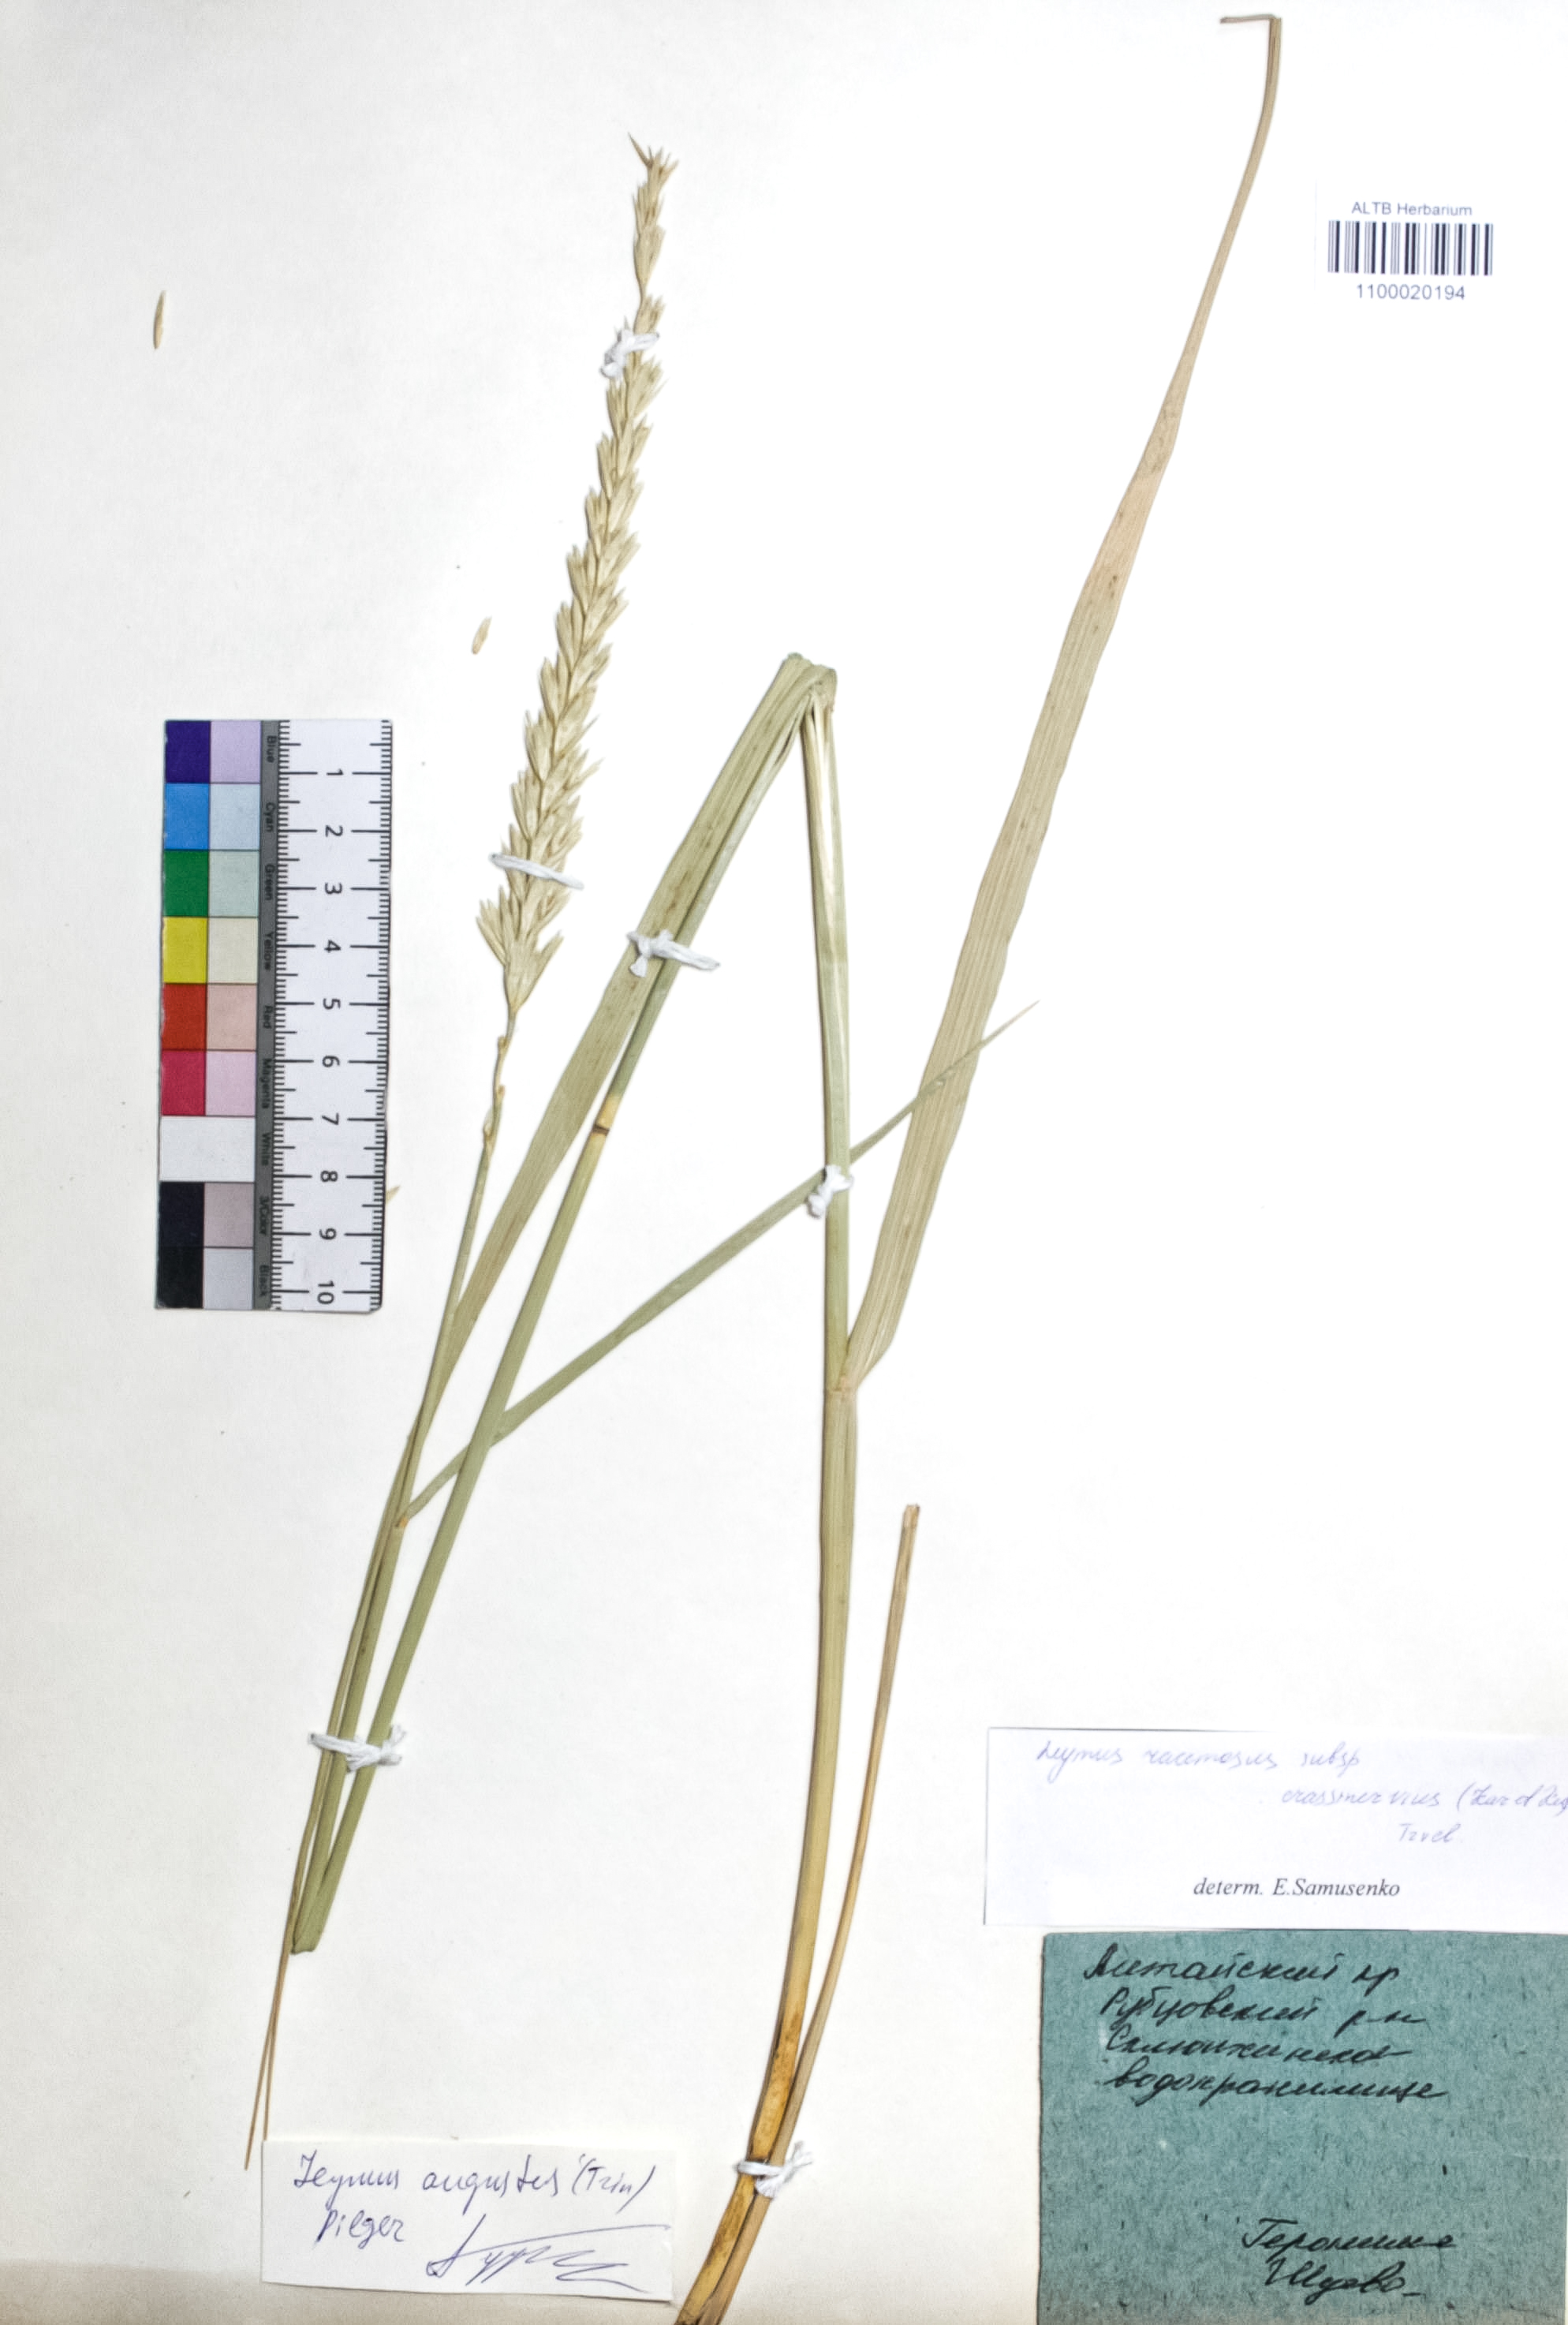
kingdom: Plantae
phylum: Tracheophyta
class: Liliopsida
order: Poales
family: Poaceae
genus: Leymus
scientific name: Leymus racemosus
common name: Mammoth wildrye
